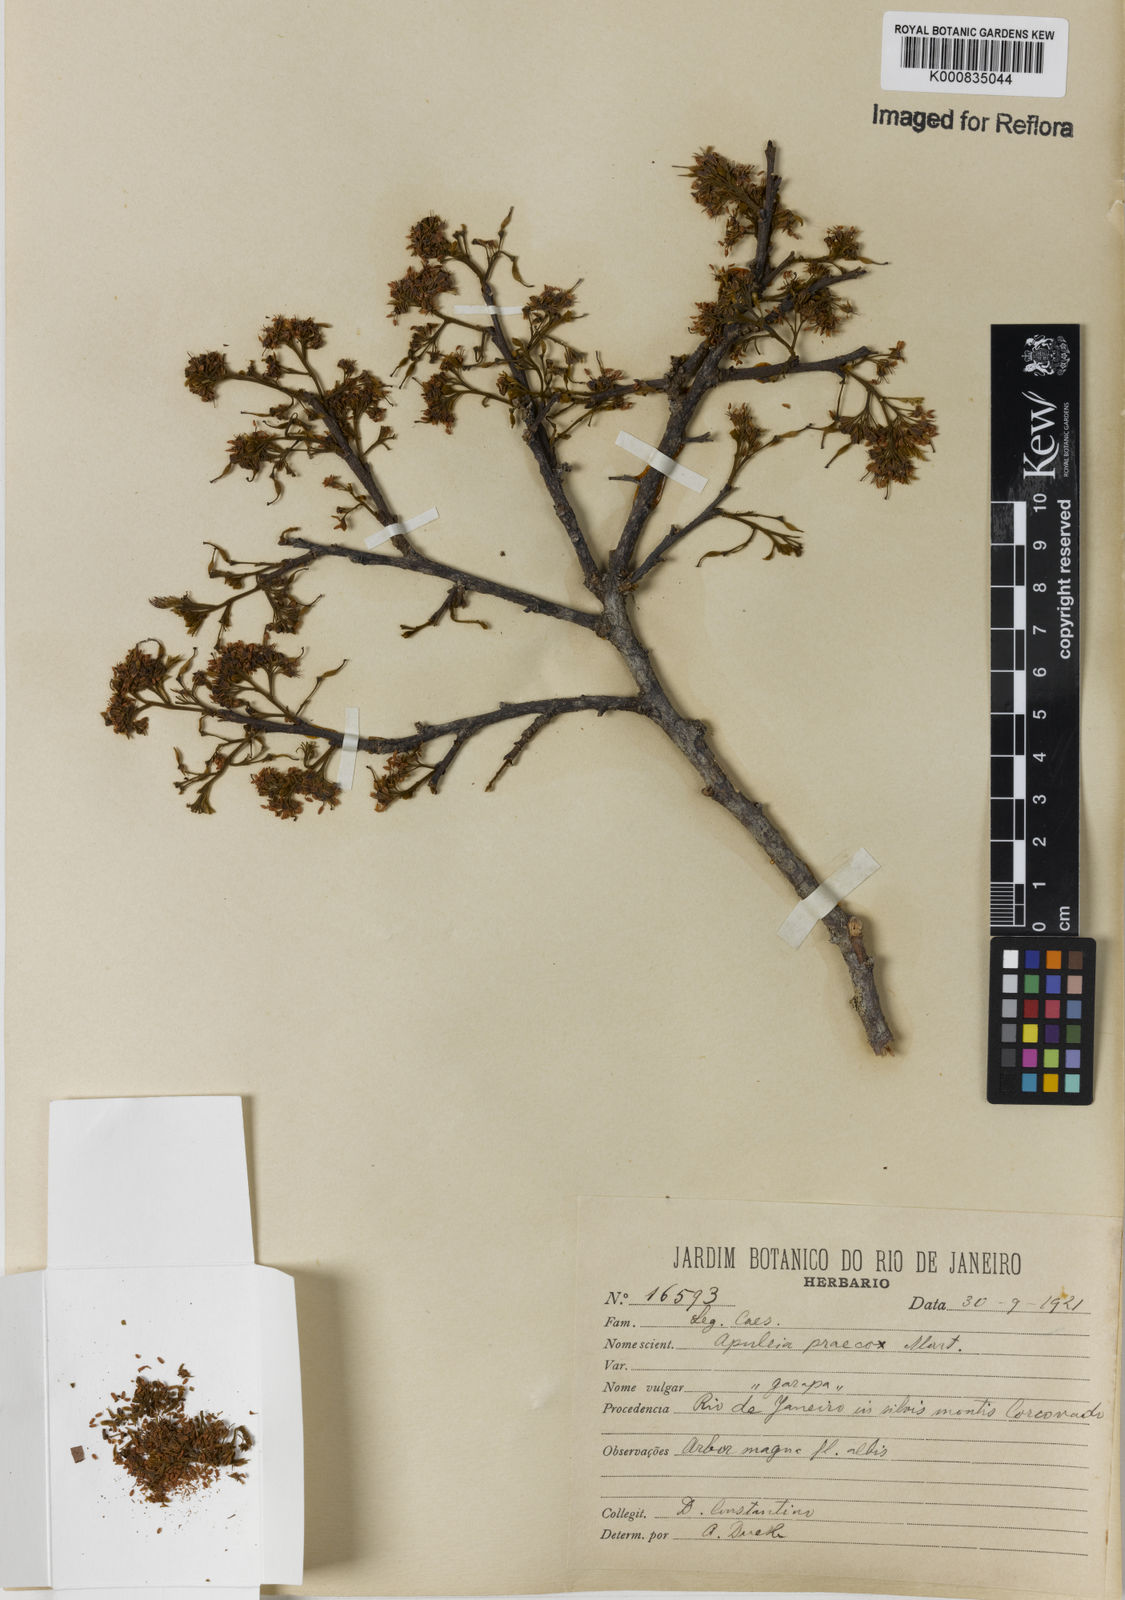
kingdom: Plantae
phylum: Tracheophyta
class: Magnoliopsida
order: Fabales
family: Fabaceae
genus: Apuleia
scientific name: Apuleia leiocarpa
